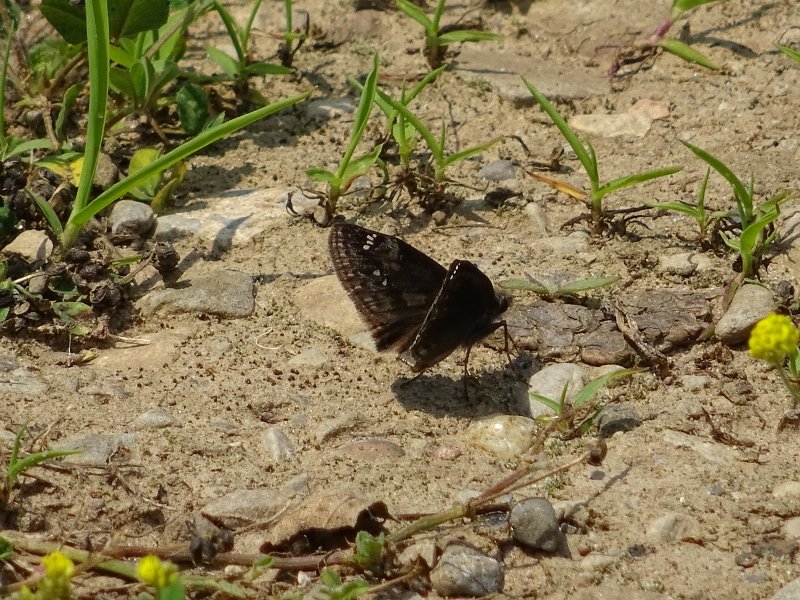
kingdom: Animalia
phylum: Arthropoda
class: Insecta
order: Lepidoptera
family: Hesperiidae
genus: Gesta
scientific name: Gesta
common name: Wild Indigo Duskywing
